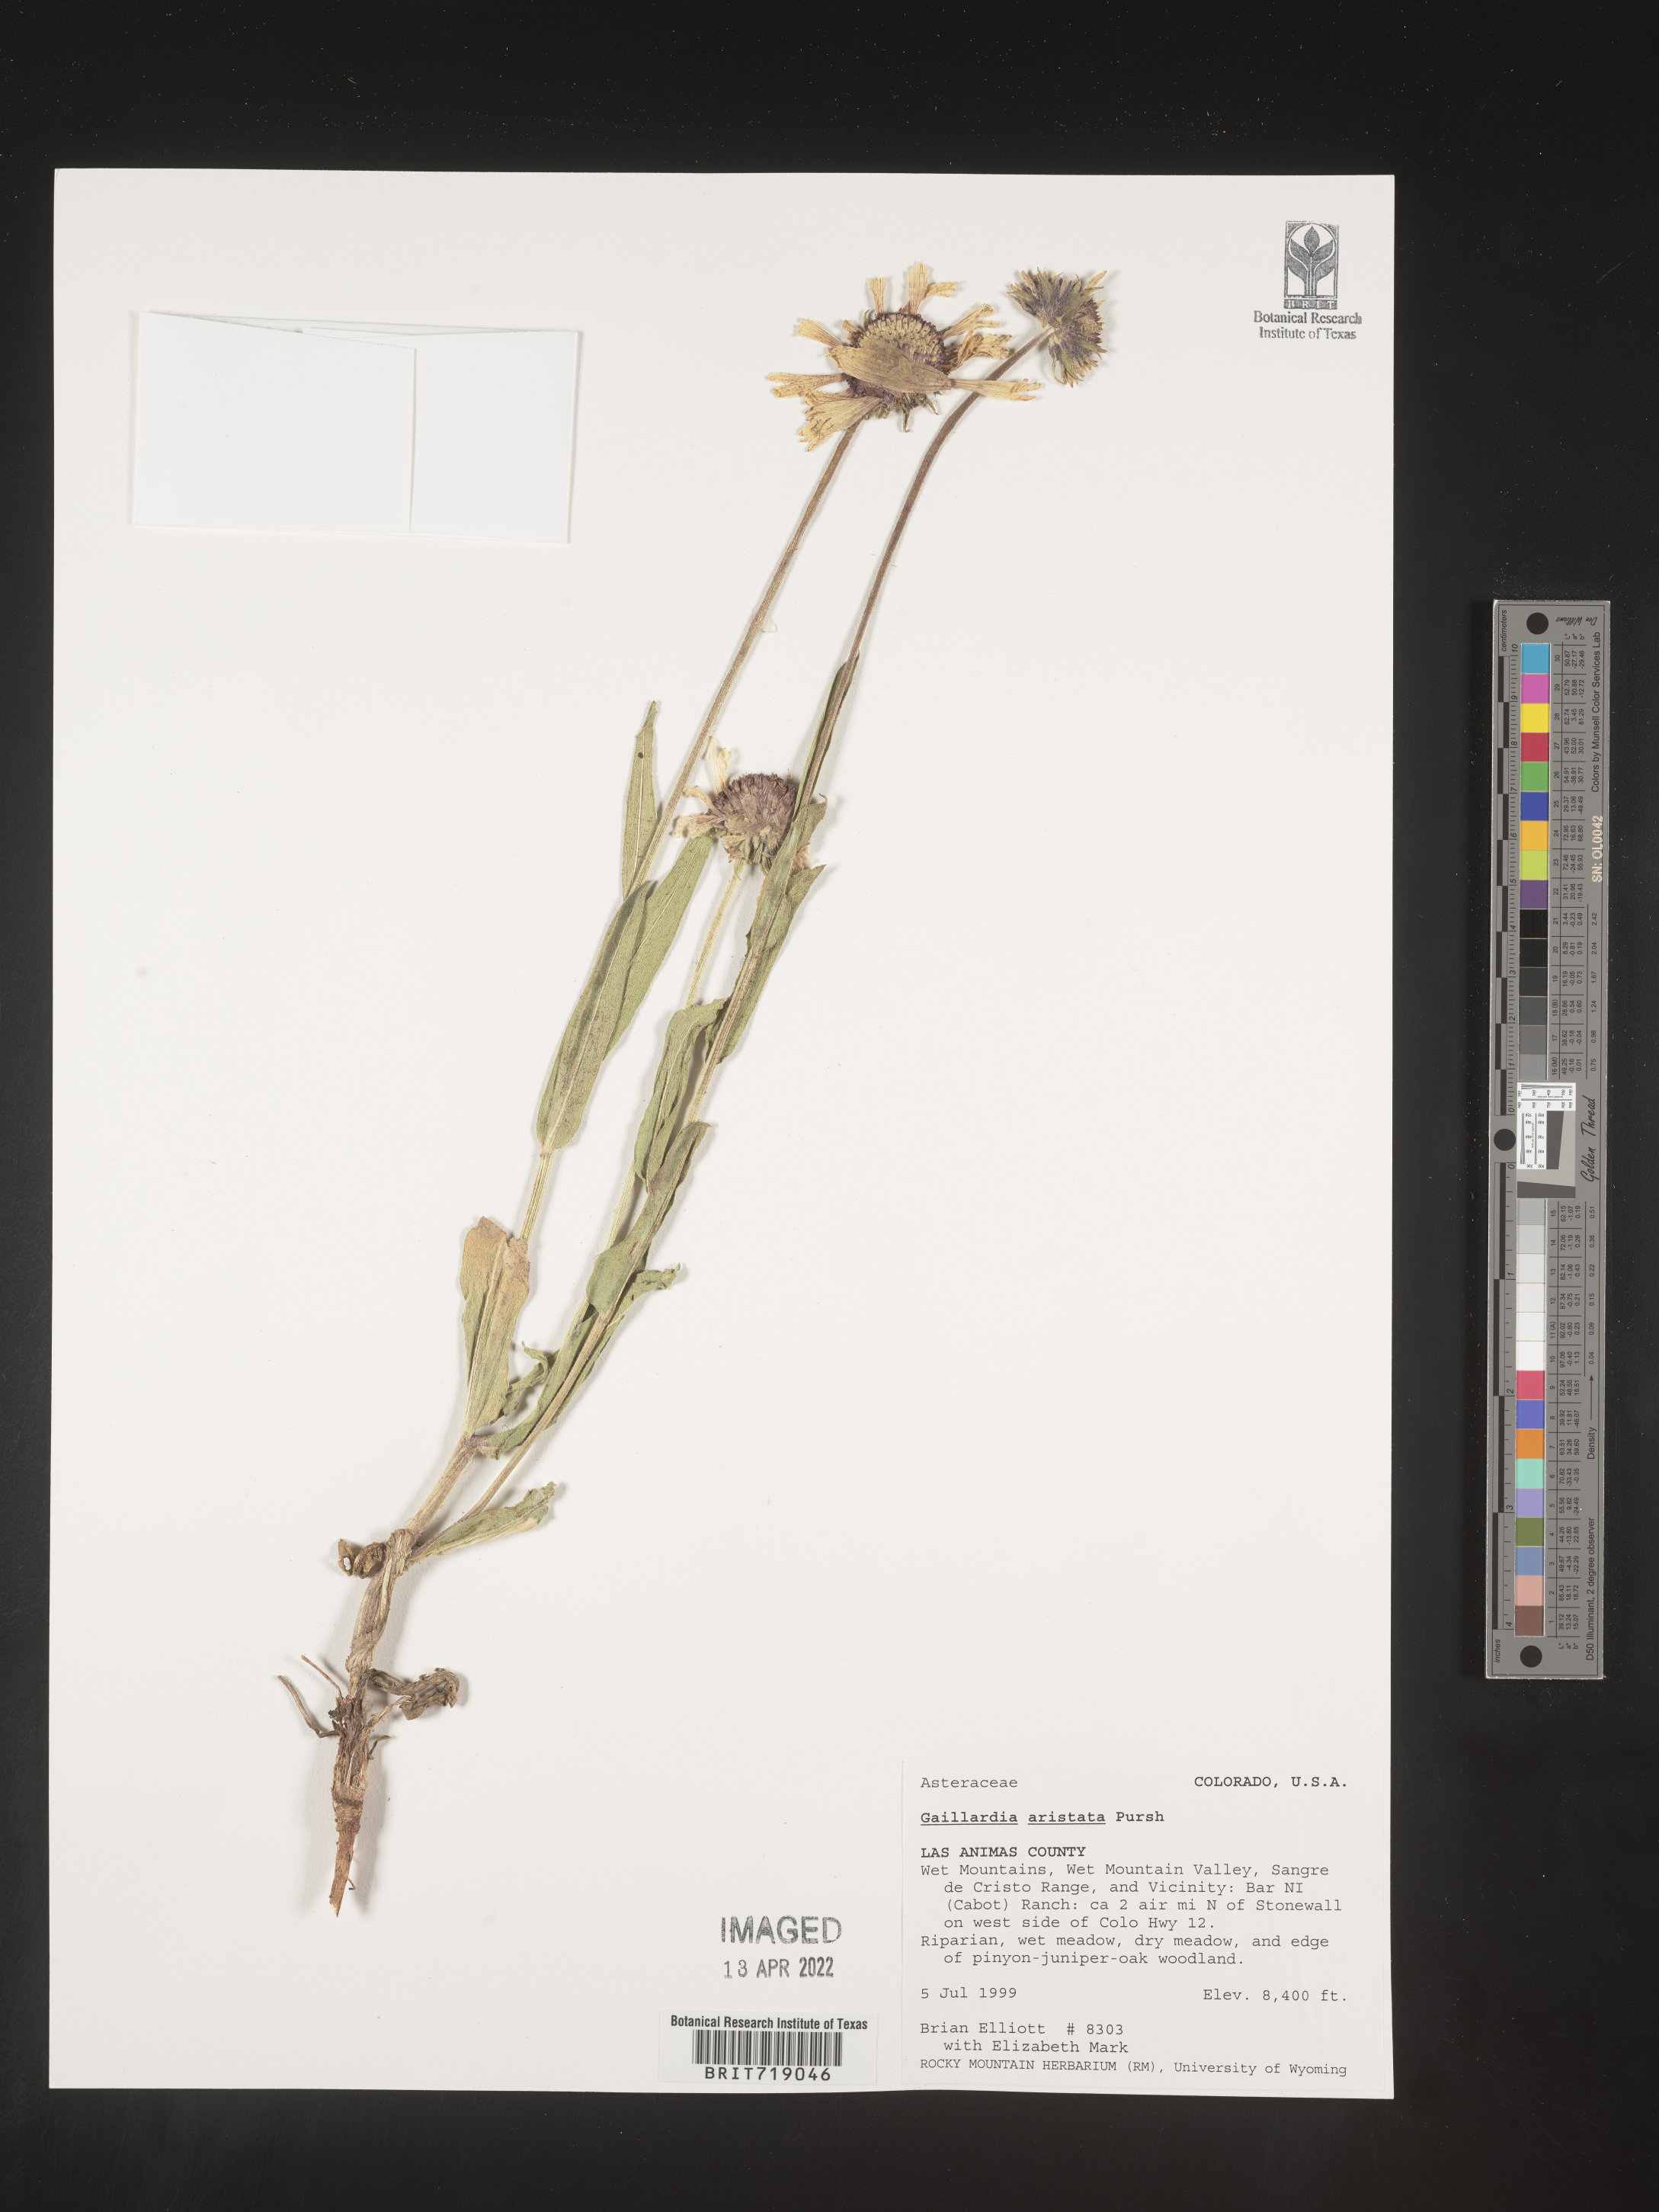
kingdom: Plantae
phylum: Tracheophyta
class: Magnoliopsida
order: Asterales
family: Asteraceae
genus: Gaillardia
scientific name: Gaillardia aristata
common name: Blanket-flower
